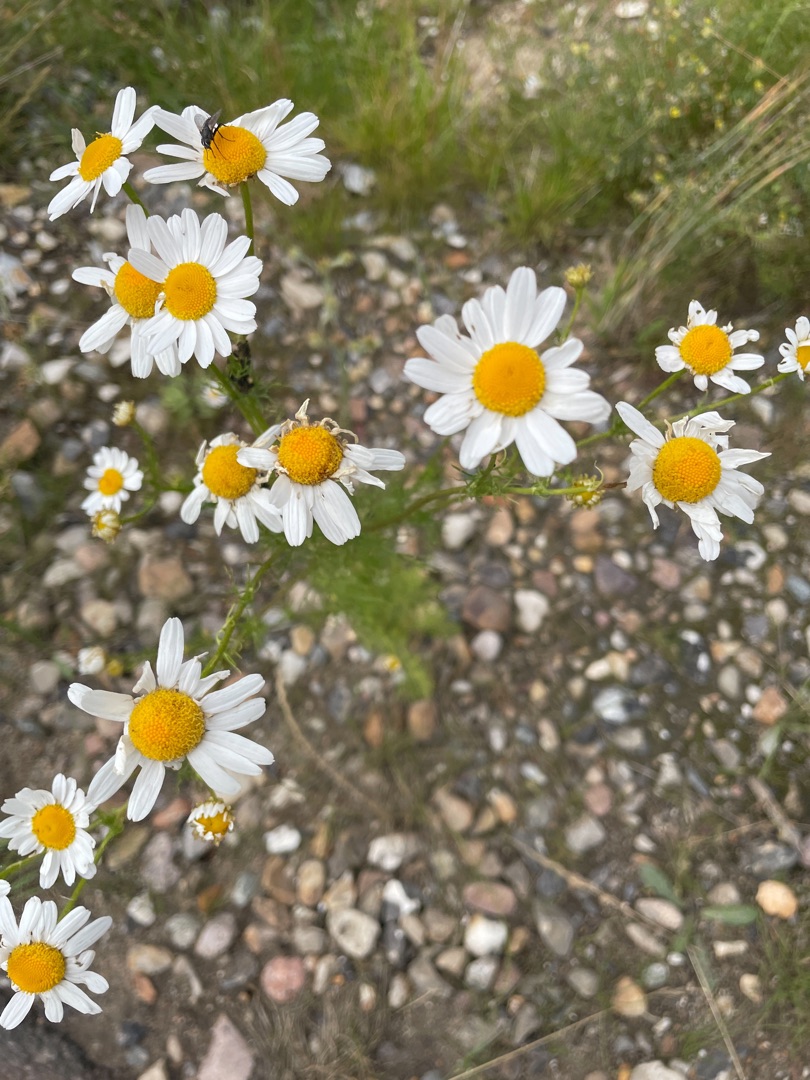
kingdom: Plantae
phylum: Tracheophyta
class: Magnoliopsida
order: Asterales
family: Asteraceae
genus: Tripleurospermum
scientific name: Tripleurospermum inodorum
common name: Lugtløs kamille
